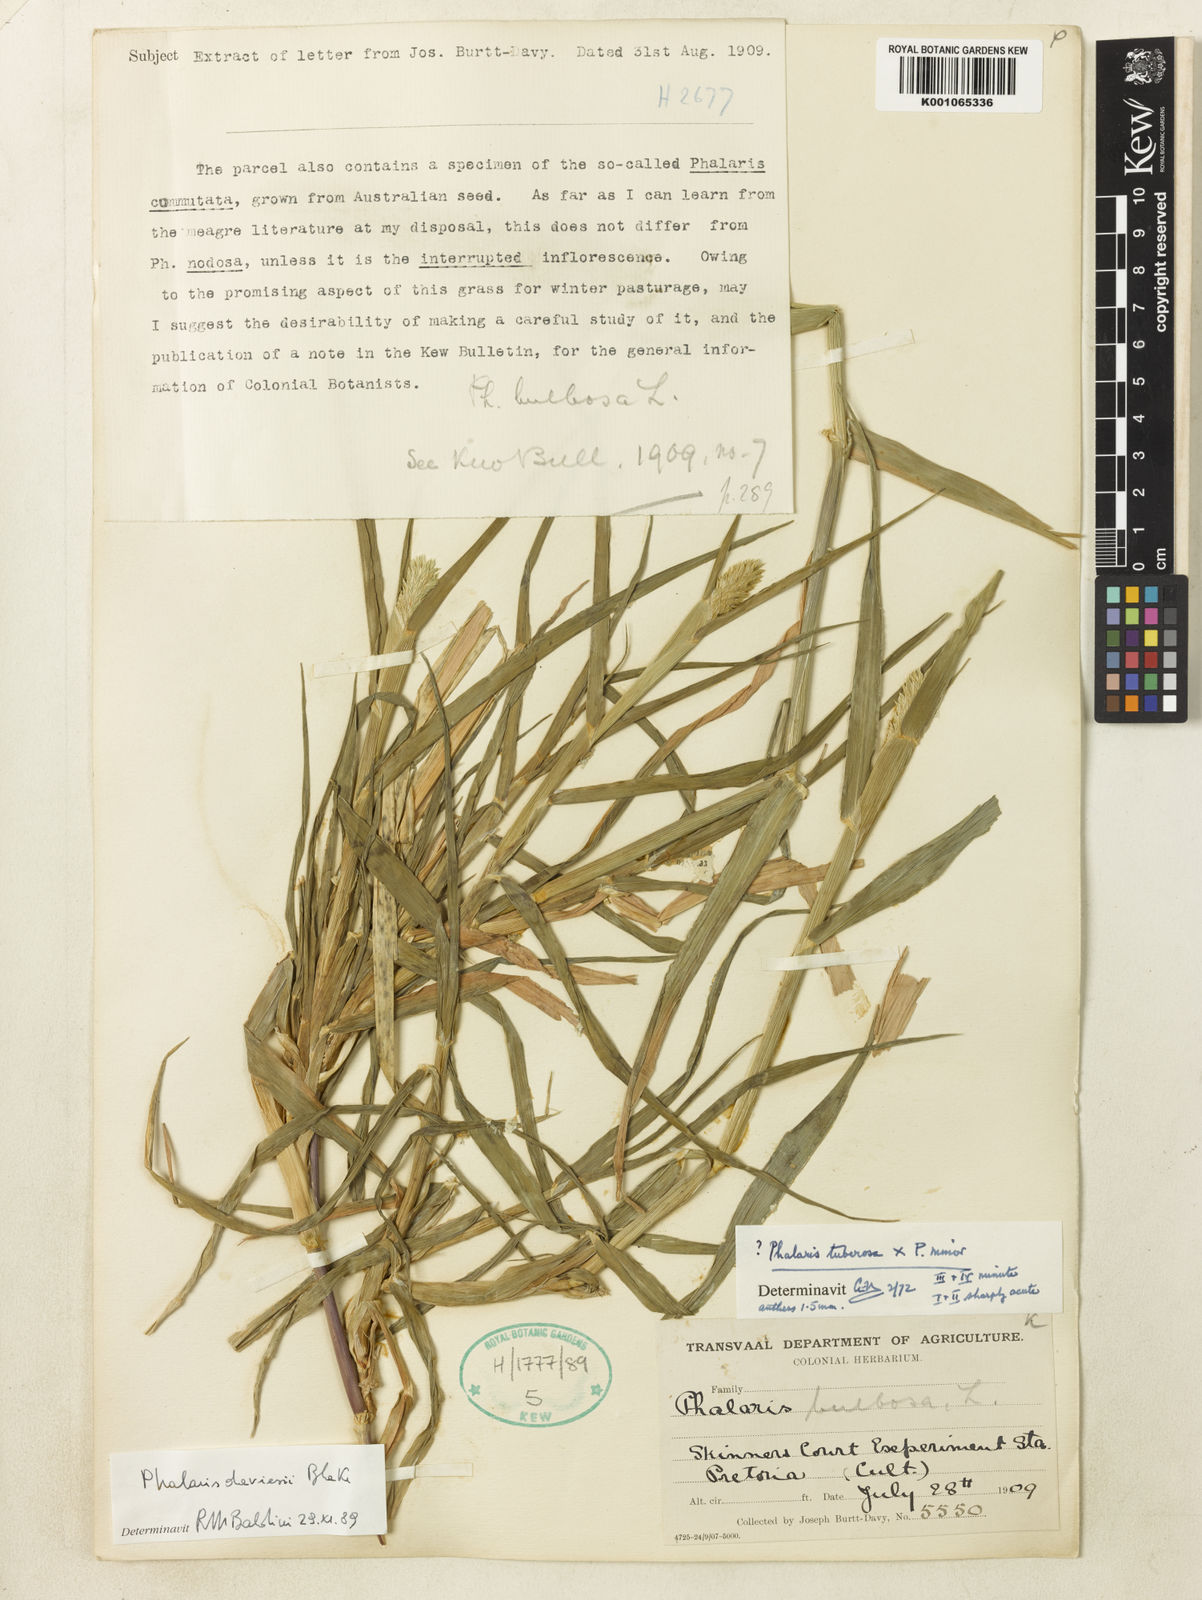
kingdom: Plantae
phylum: Tracheophyta
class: Liliopsida
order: Poales
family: Poaceae
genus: Phalaris
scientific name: Phalaris arundinacea
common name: Reed canary-grass
